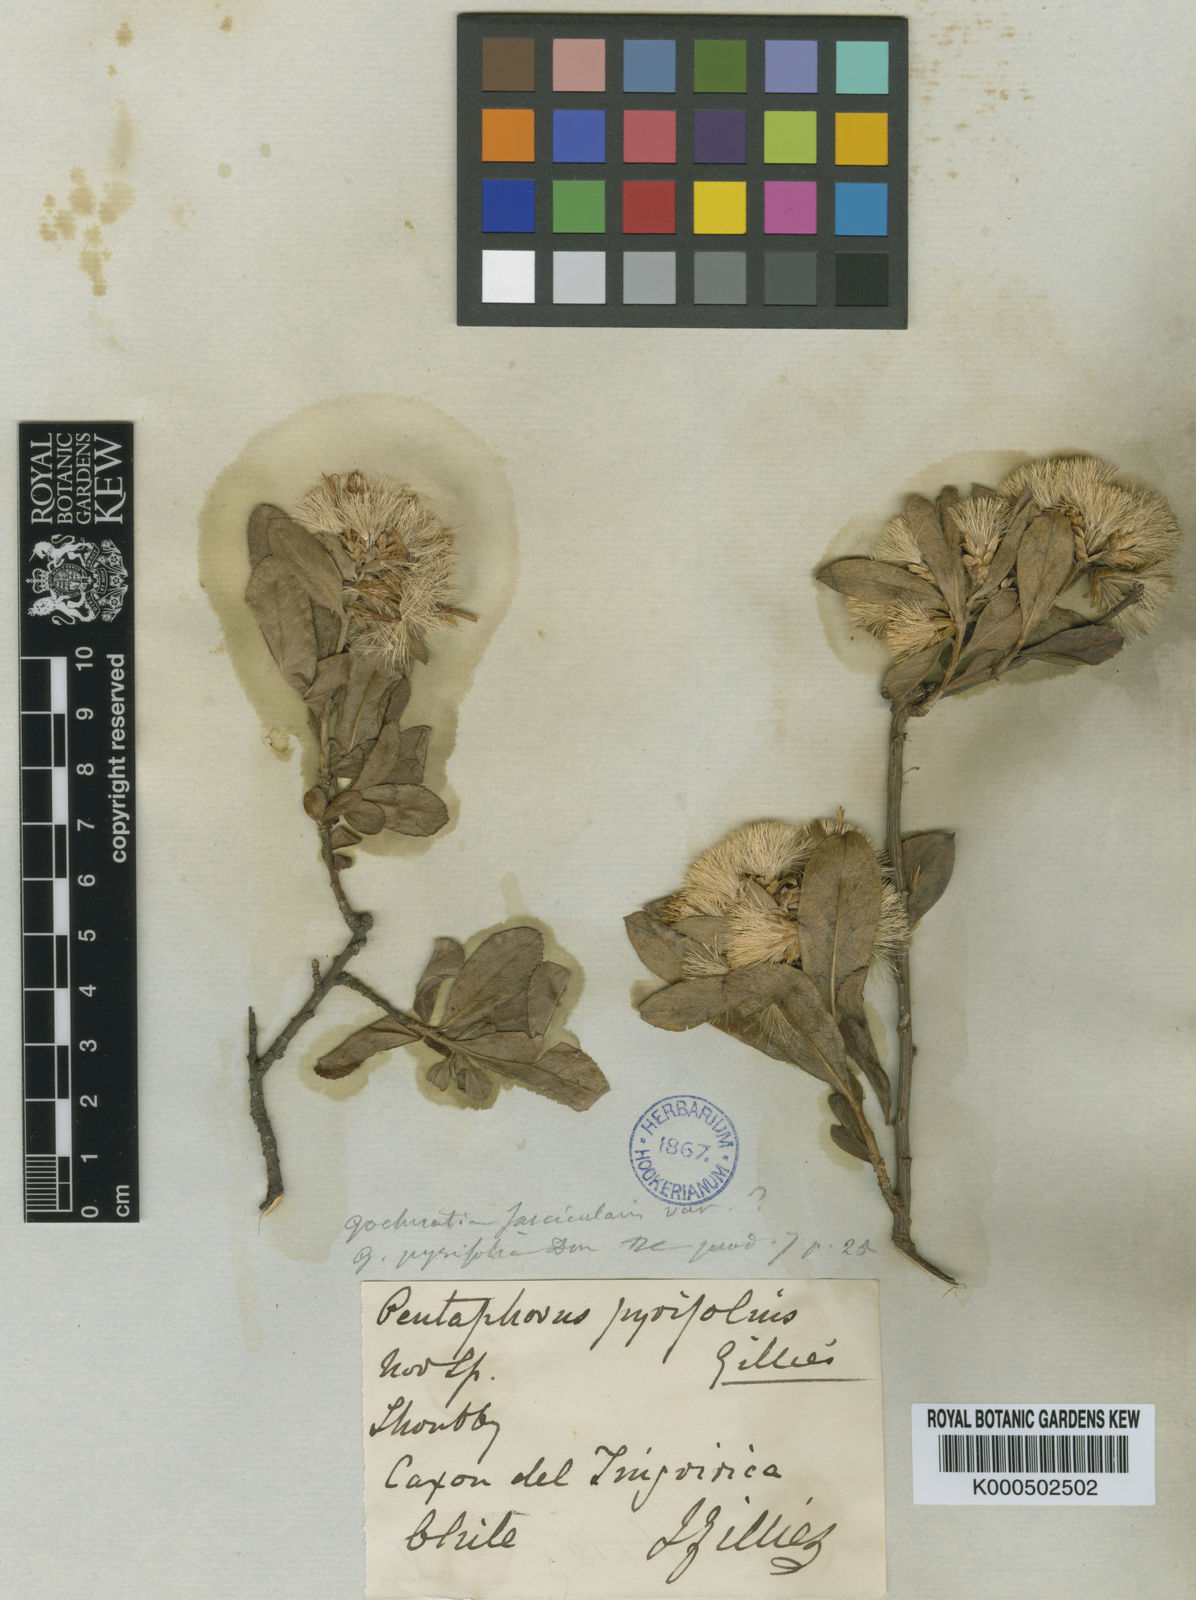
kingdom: Plantae
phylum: Tracheophyta
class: Magnoliopsida
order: Asterales
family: Asteraceae
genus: Gochnatia
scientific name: Gochnatia foliolosa
